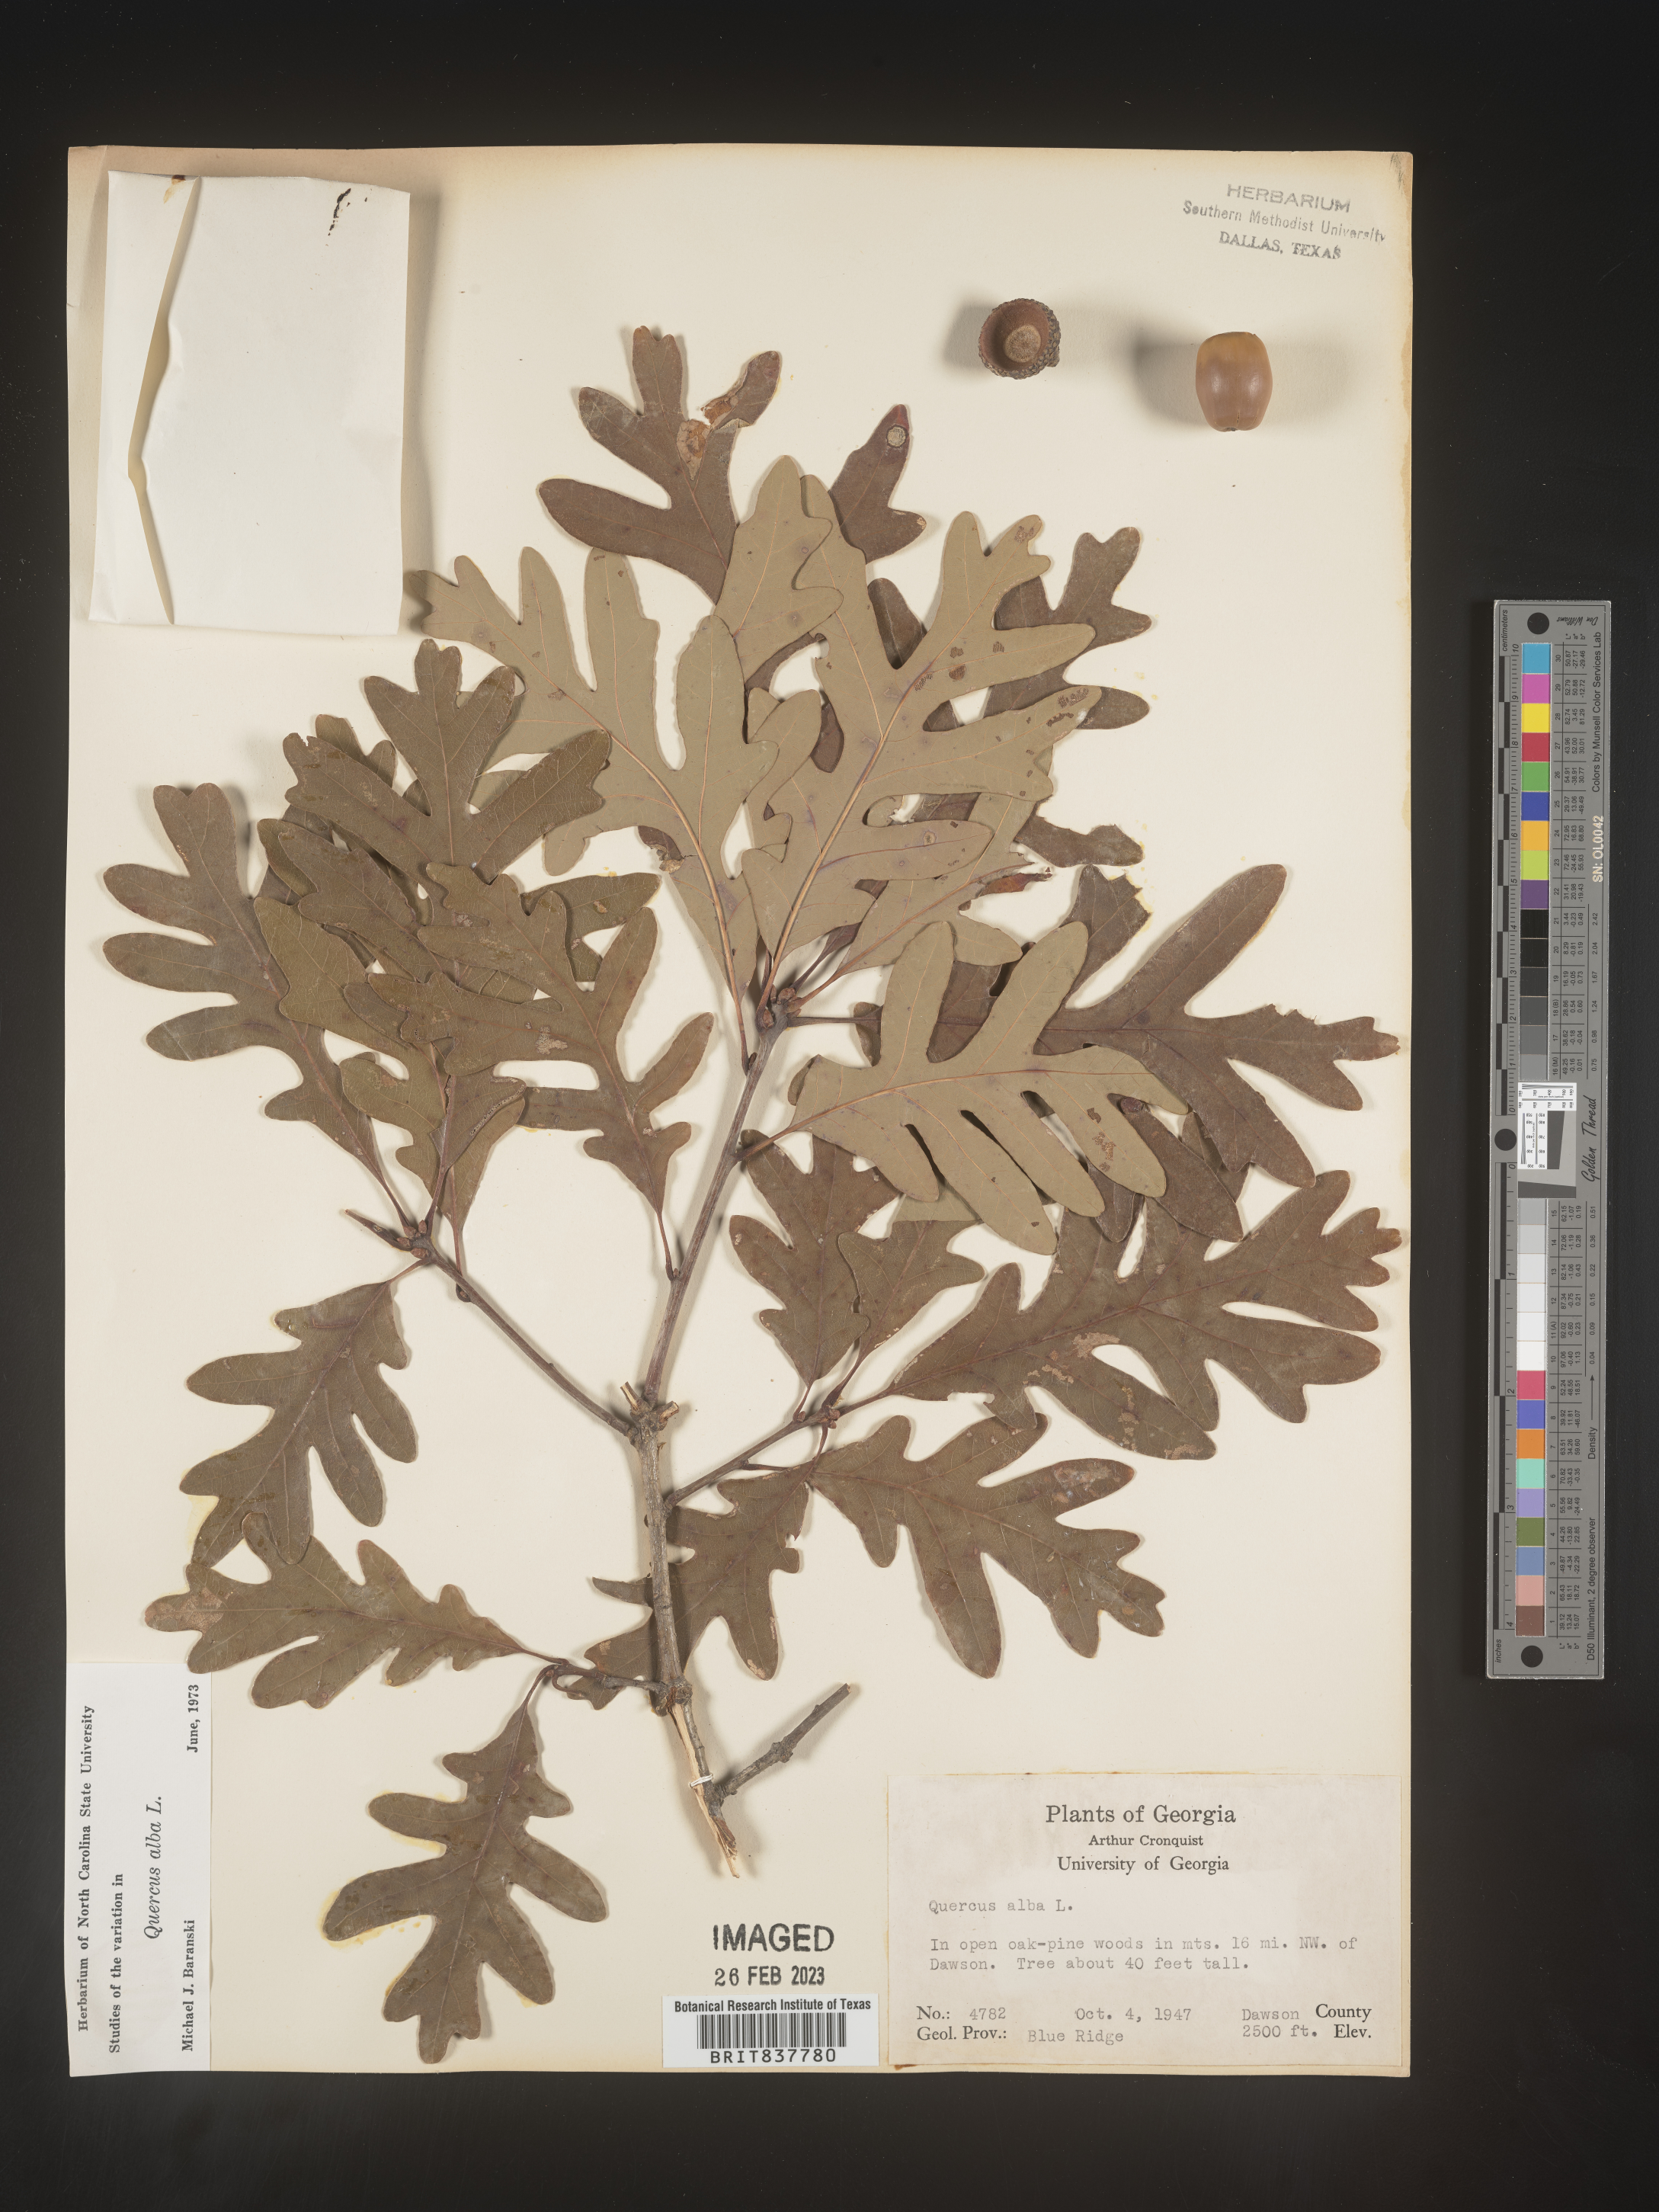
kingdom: Plantae
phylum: Tracheophyta
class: Magnoliopsida
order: Fagales
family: Fagaceae
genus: Quercus
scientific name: Quercus alba
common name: White oak
